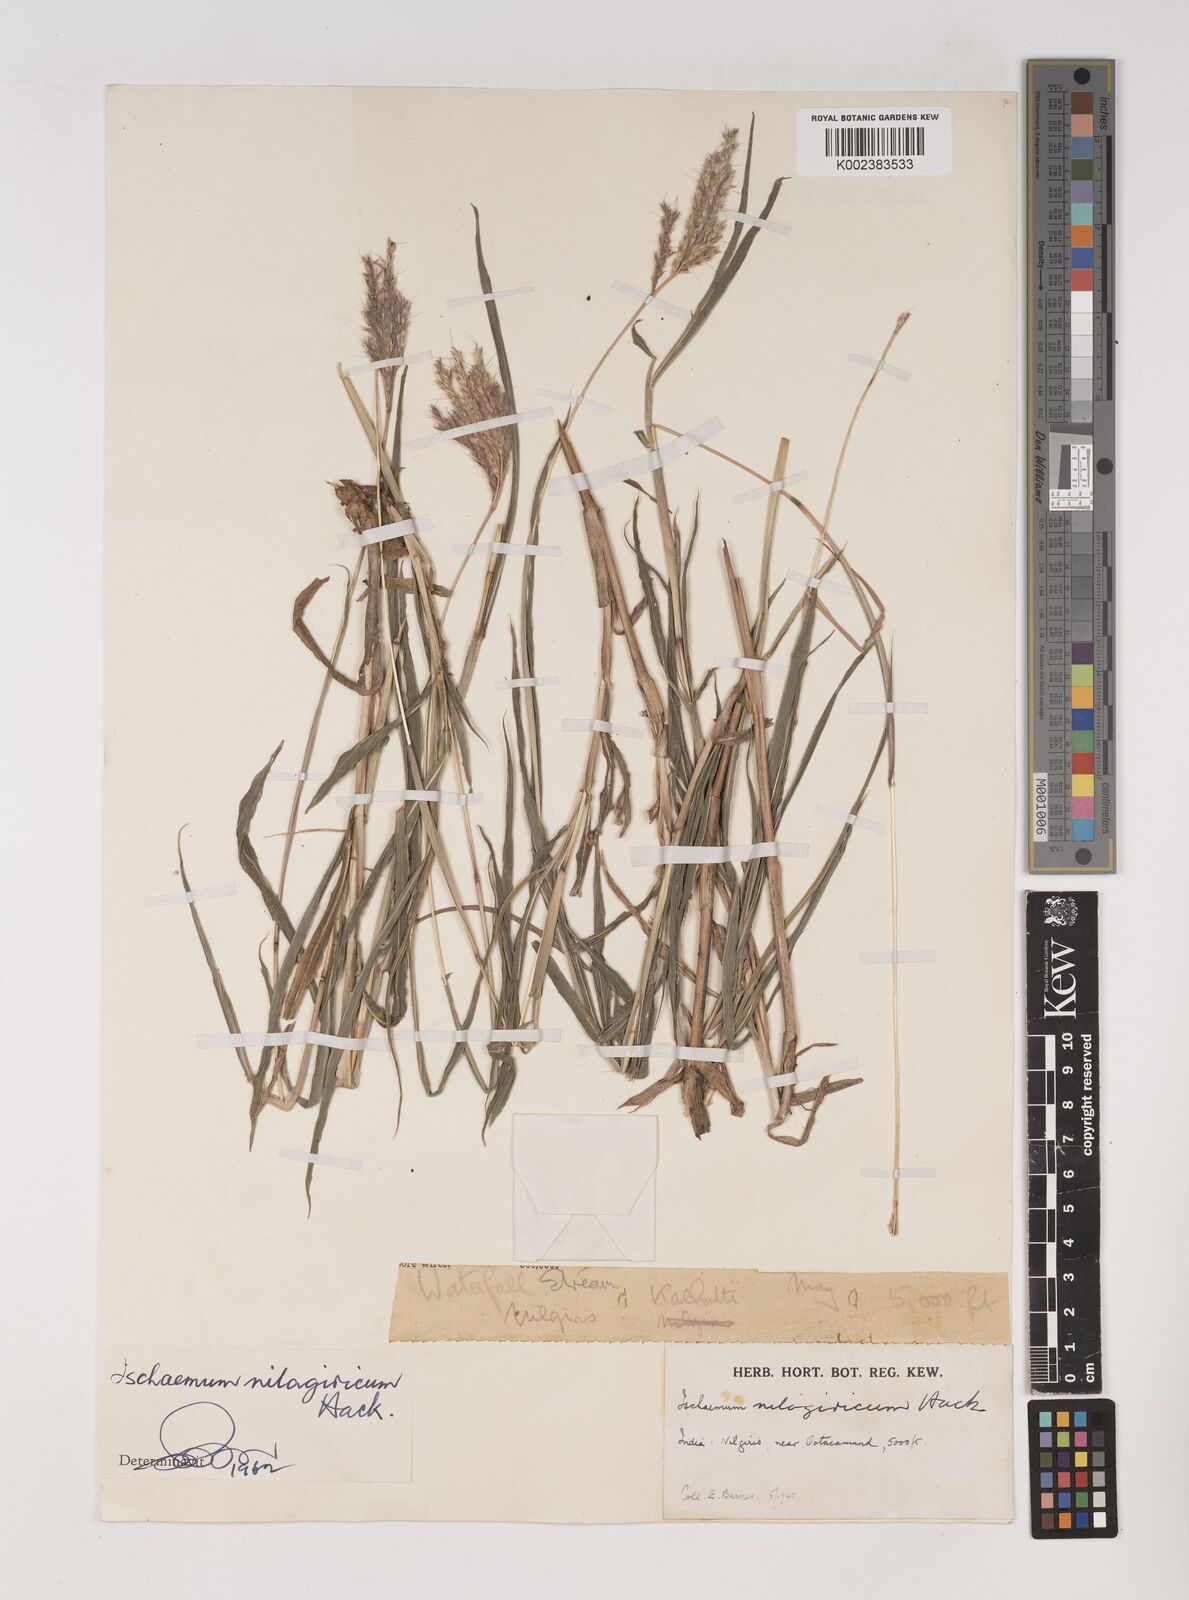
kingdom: Plantae
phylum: Tracheophyta
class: Liliopsida
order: Poales
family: Poaceae
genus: Ischaemum
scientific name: Ischaemum
